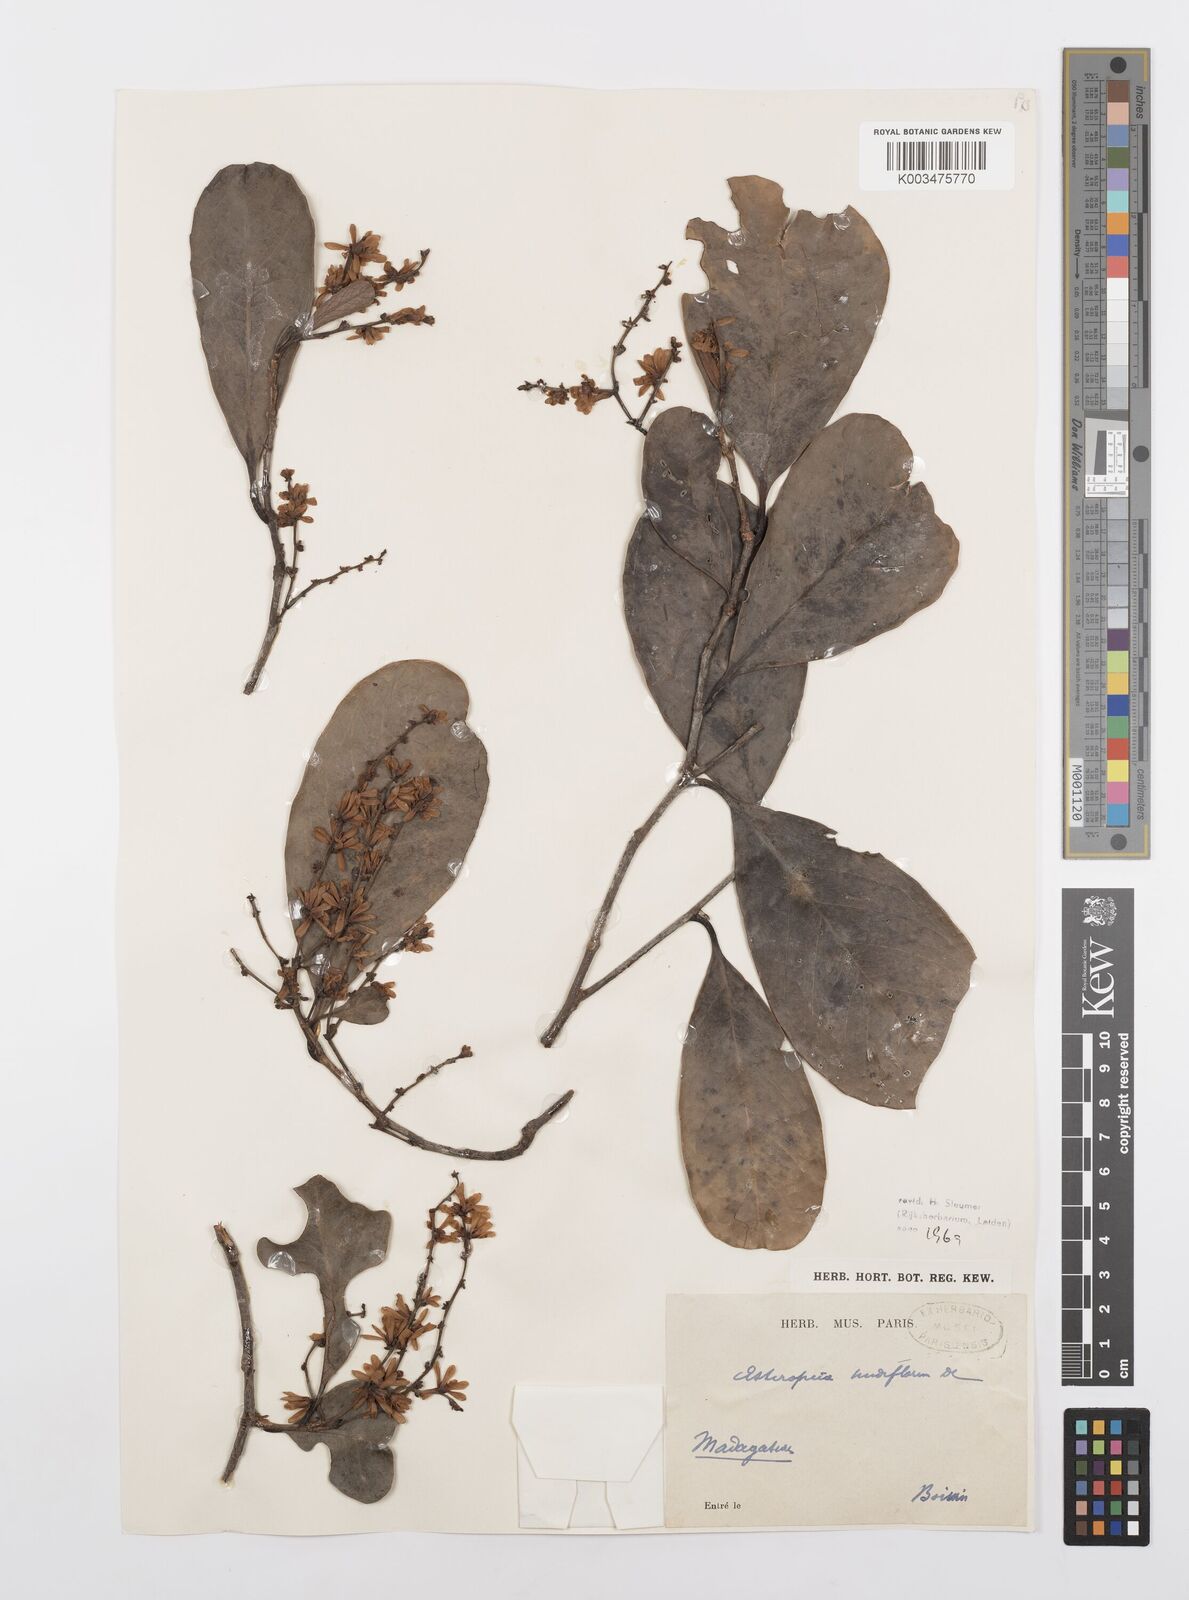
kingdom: Plantae
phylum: Tracheophyta
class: Magnoliopsida
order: Malpighiales
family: Salicaceae
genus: Homalium
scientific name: Homalium nudiflorum
